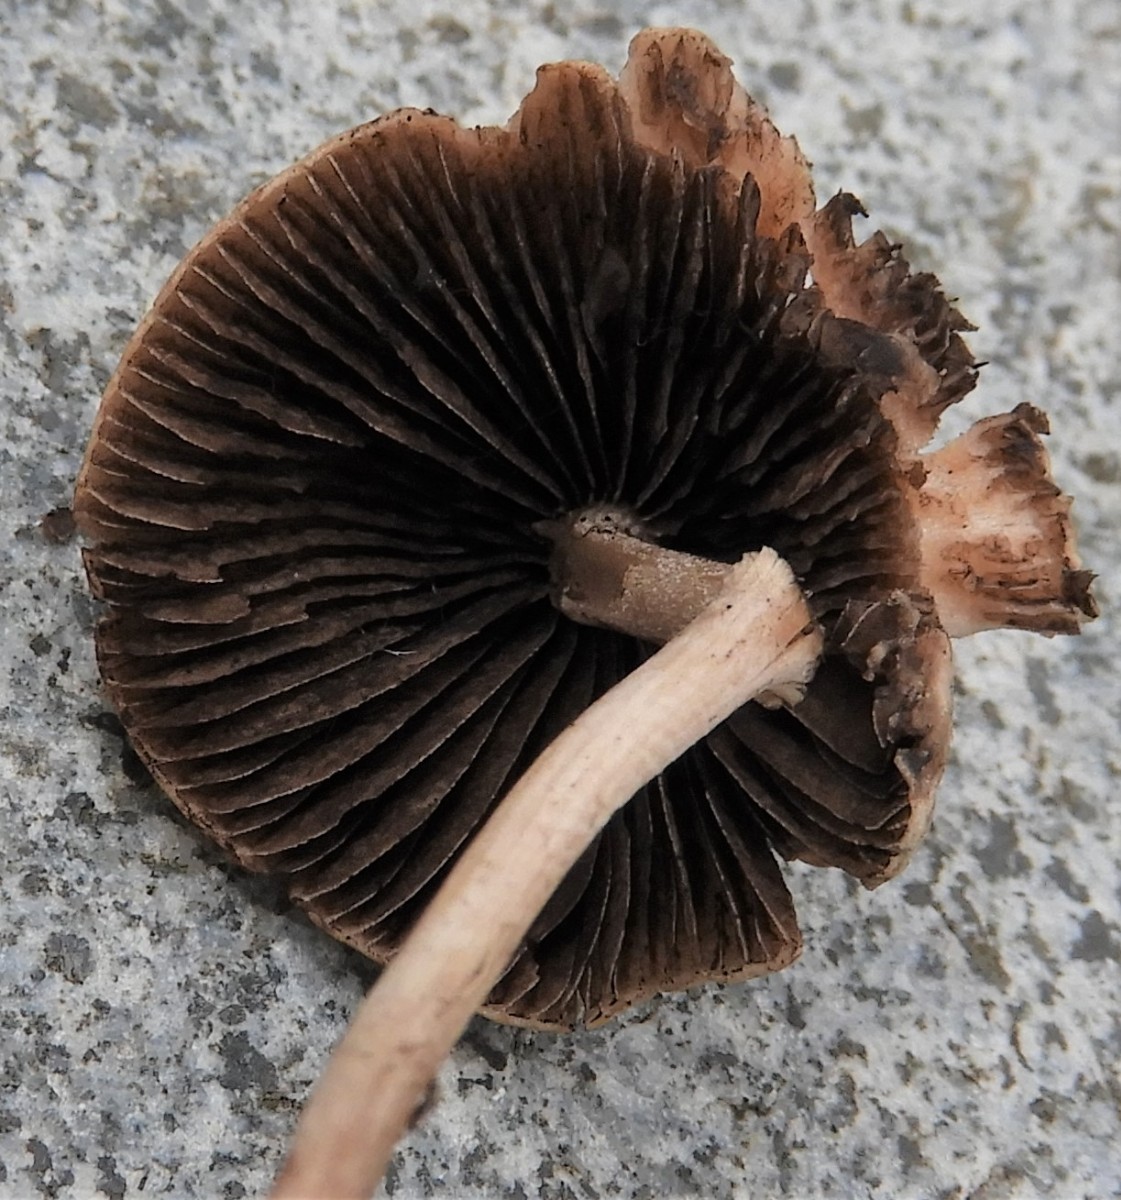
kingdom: Fungi
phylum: Basidiomycota
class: Agaricomycetes
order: Agaricales
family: Bolbitiaceae
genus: Panaeolus
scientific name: Panaeolus
